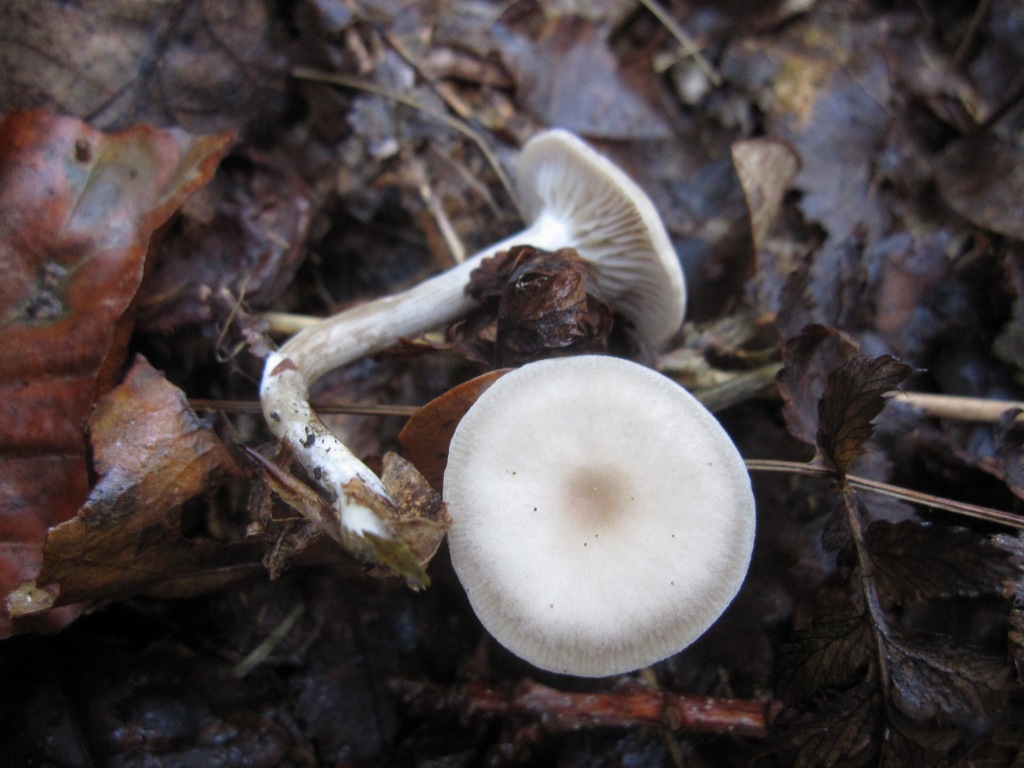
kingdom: Fungi
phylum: Basidiomycota
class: Agaricomycetes
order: Agaricales
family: Tricholomataceae
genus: Clitocybe
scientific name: Clitocybe metachroa
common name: grå tragthat
